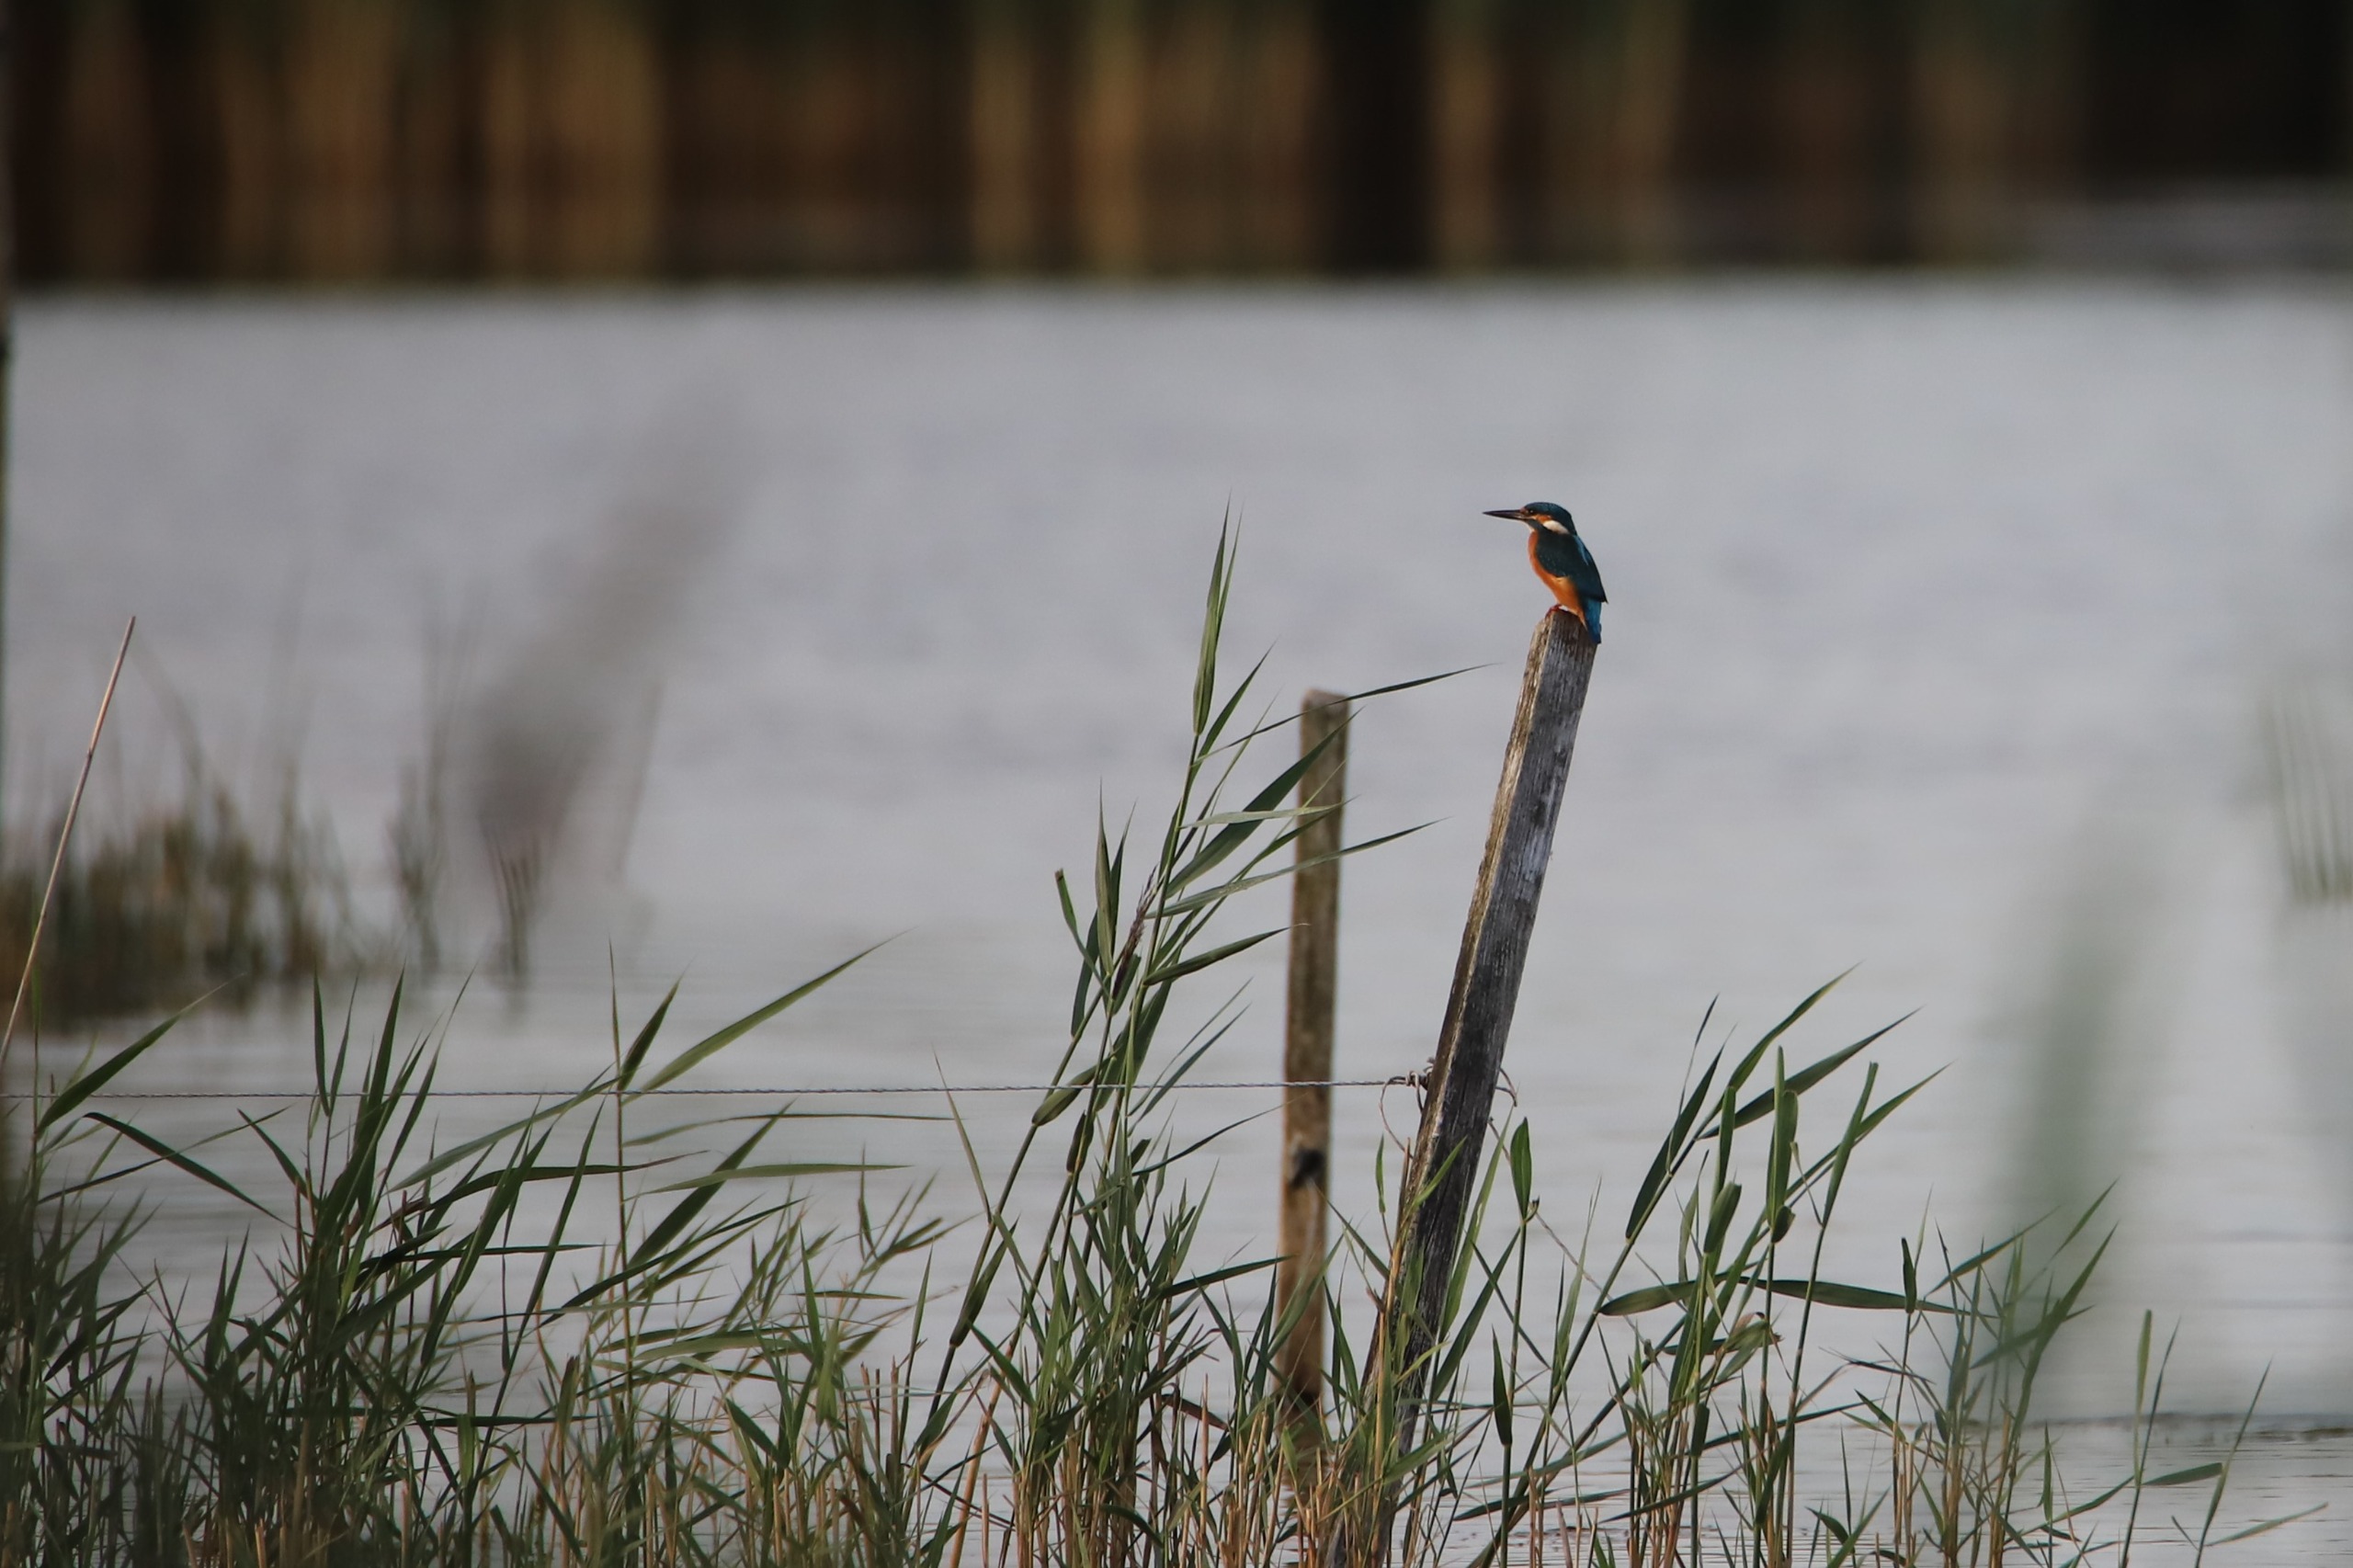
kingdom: Animalia
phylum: Chordata
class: Aves
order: Coraciiformes
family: Alcedinidae
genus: Alcedo
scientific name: Alcedo atthis
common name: Isfugl
